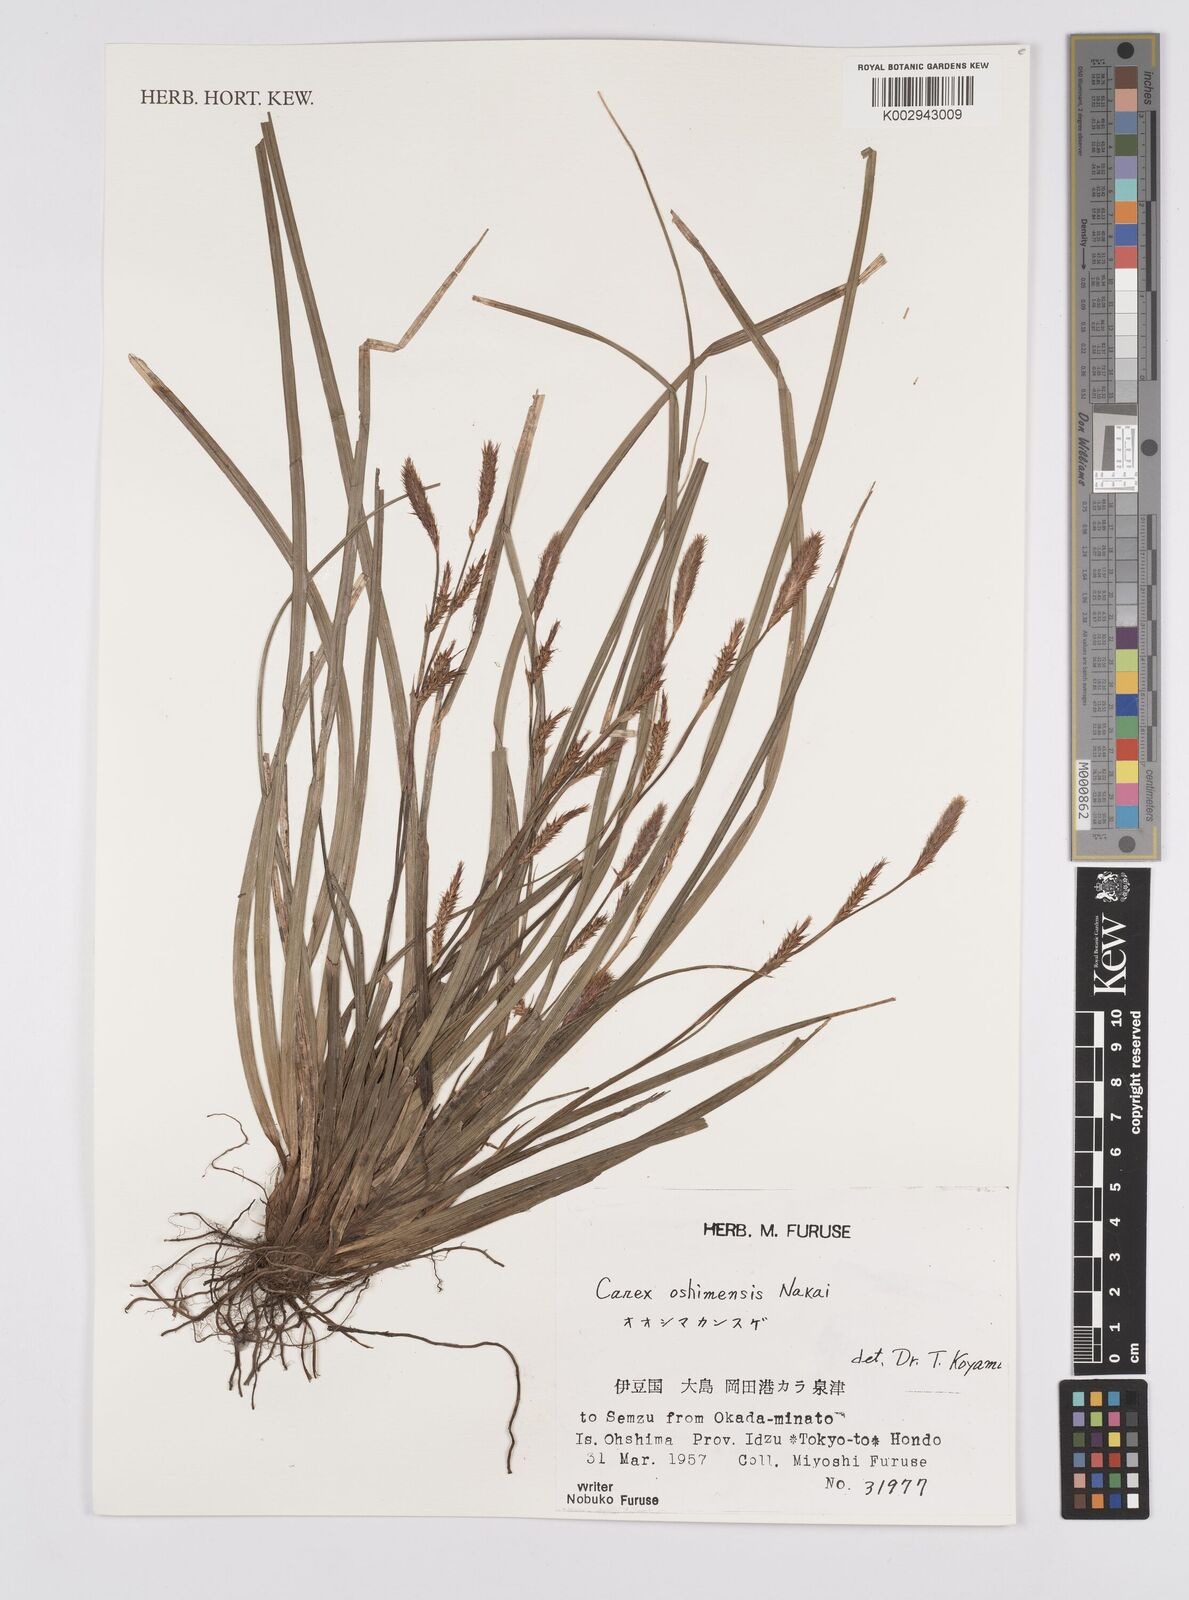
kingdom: Plantae
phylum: Tracheophyta
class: Liliopsida
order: Poales
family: Cyperaceae
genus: Carex
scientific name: Carex oshimensis
